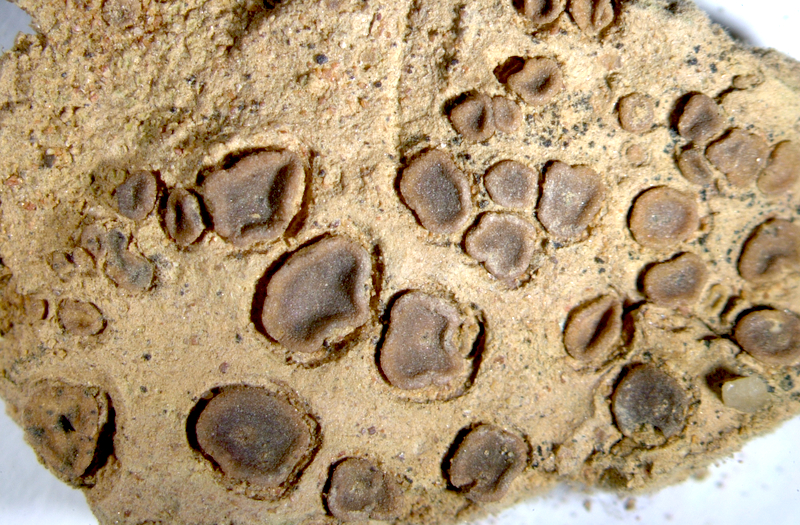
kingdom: Fungi
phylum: Ascomycota
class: Eurotiomycetes
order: Verrucariales
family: Verrucariaceae
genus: Catapyrenium
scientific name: Catapyrenium tenellum
